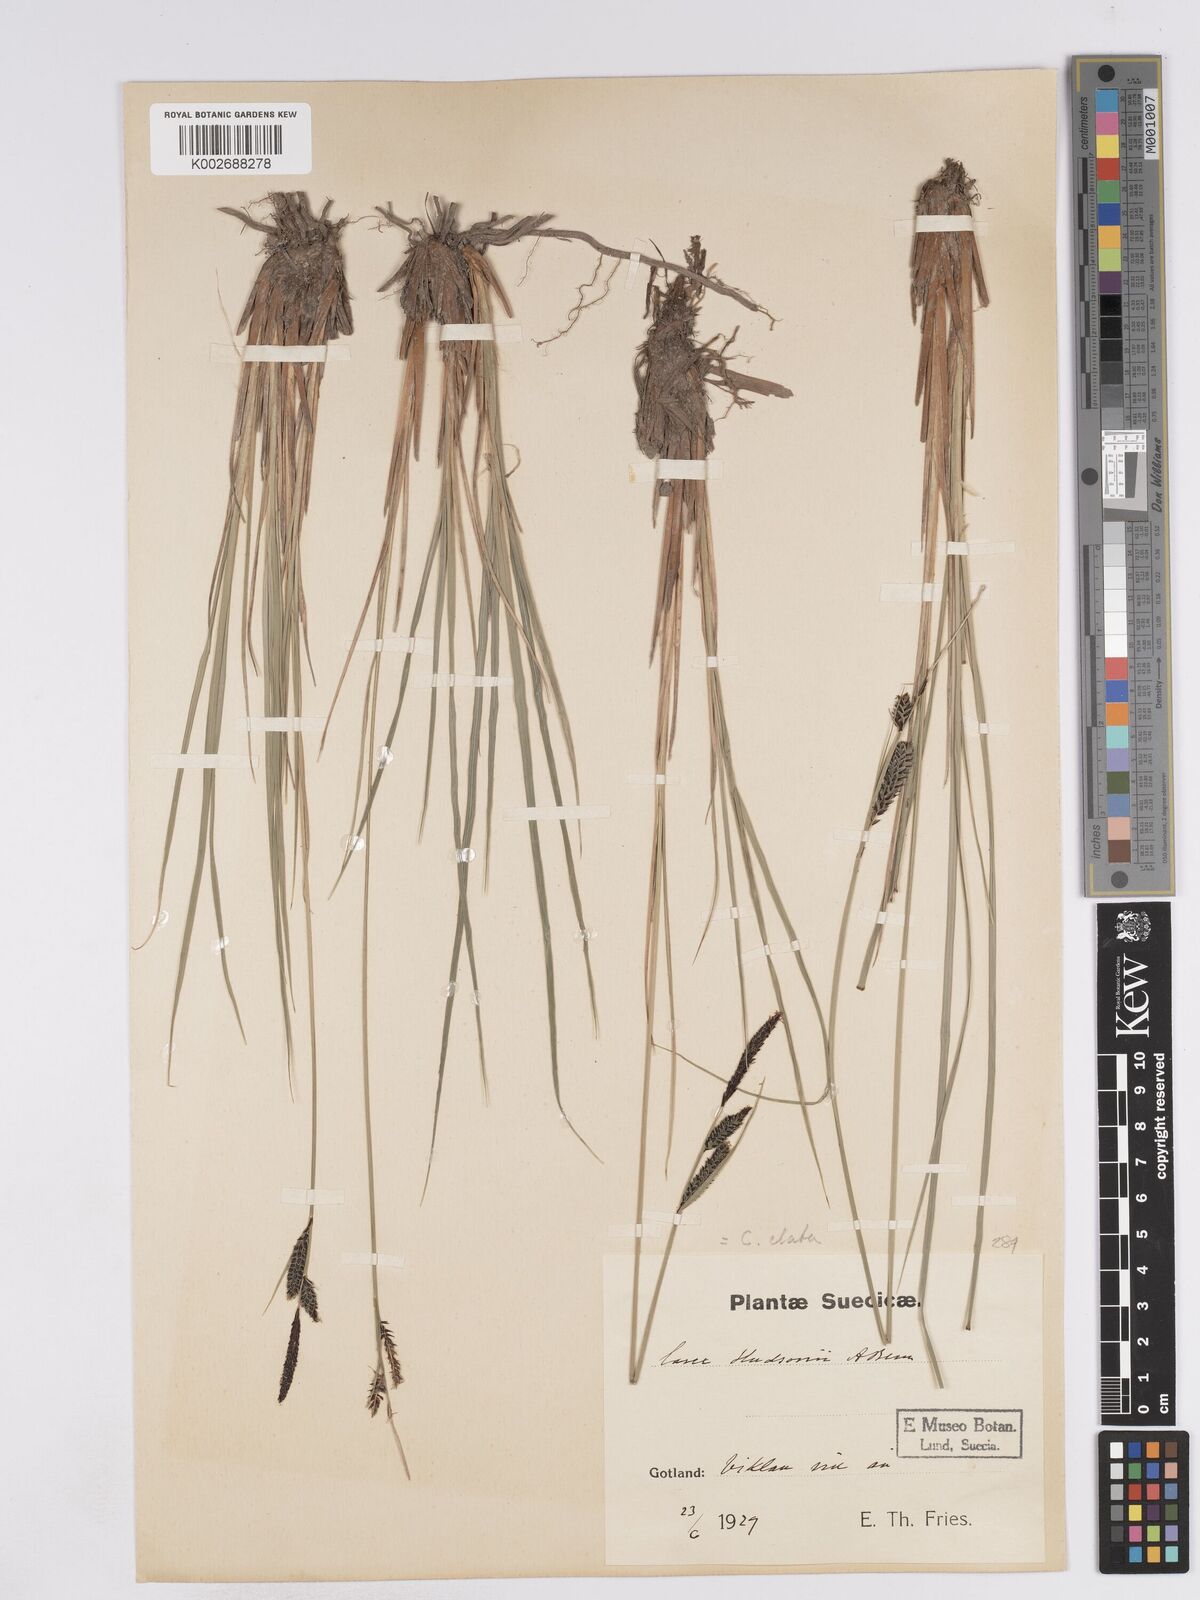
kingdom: Plantae
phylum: Tracheophyta
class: Liliopsida
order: Poales
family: Cyperaceae
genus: Carex
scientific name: Carex elata
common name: Tufted sedge
